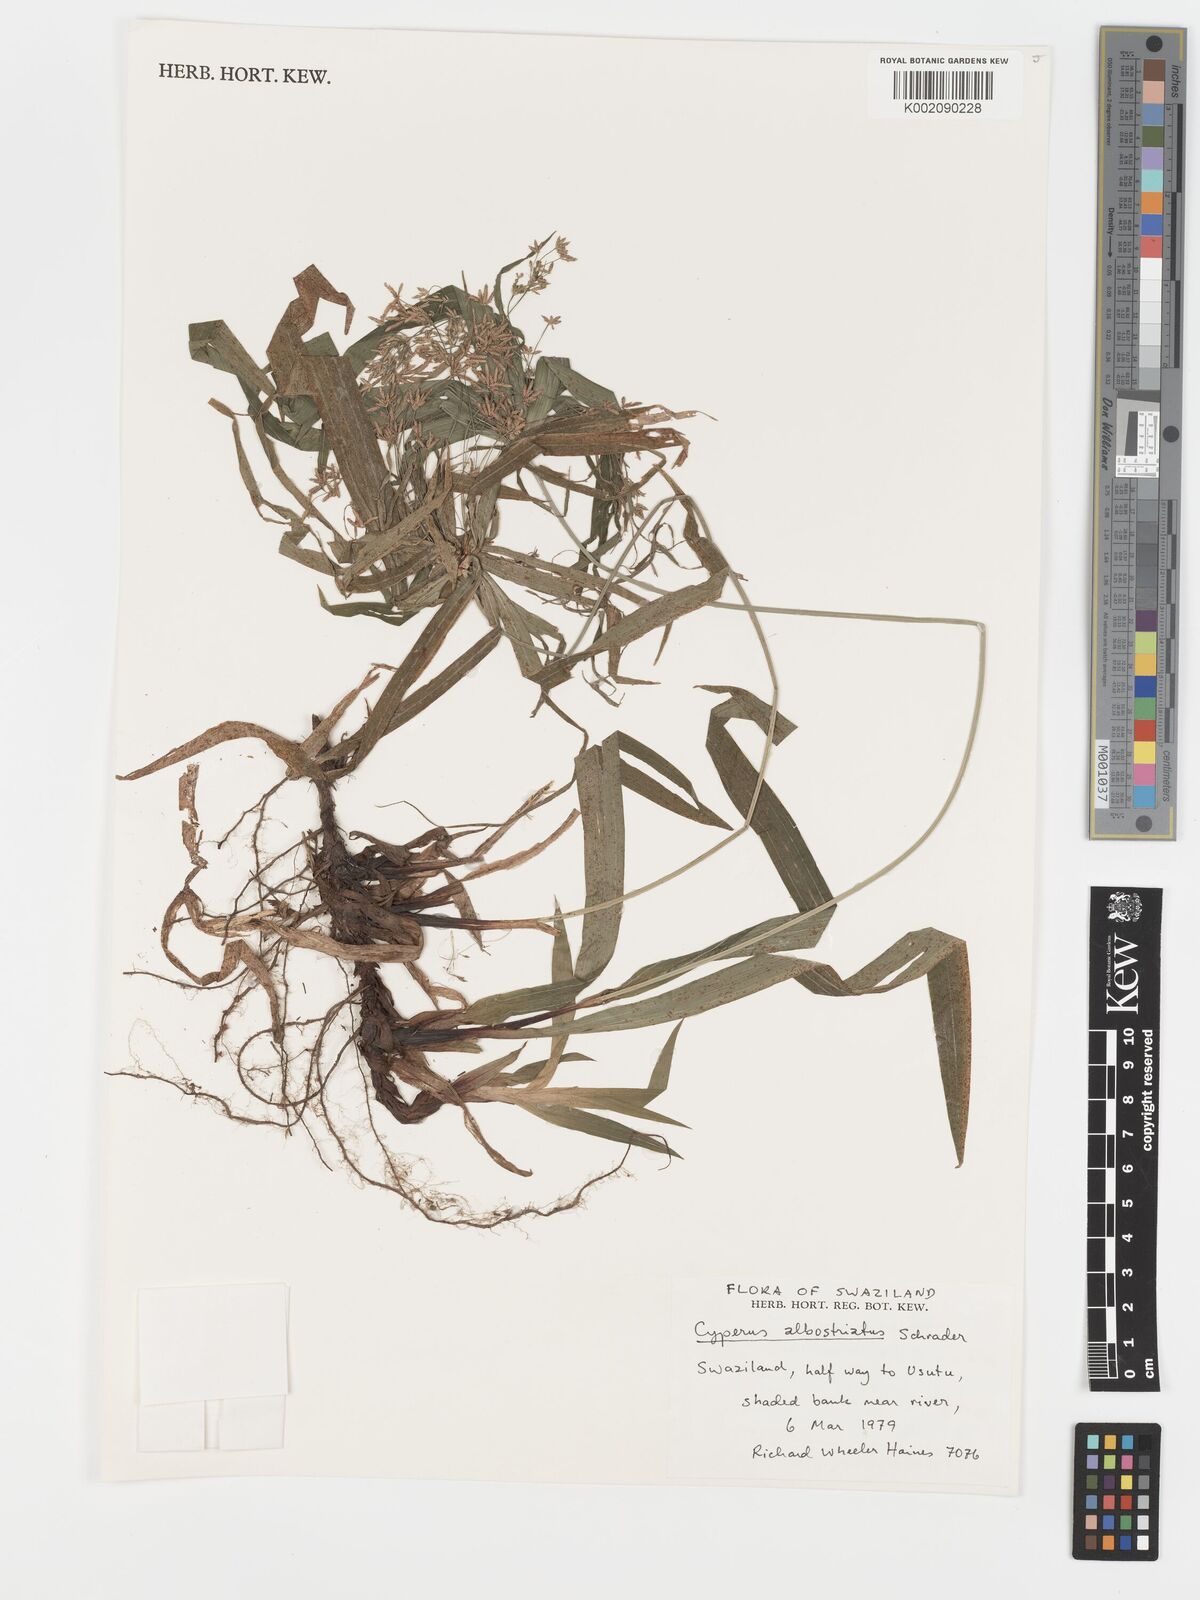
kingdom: Plantae
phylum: Tracheophyta
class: Liliopsida
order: Poales
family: Cyperaceae
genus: Cyperus
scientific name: Cyperus albostriatus
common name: Dwarf umbrella-grass
